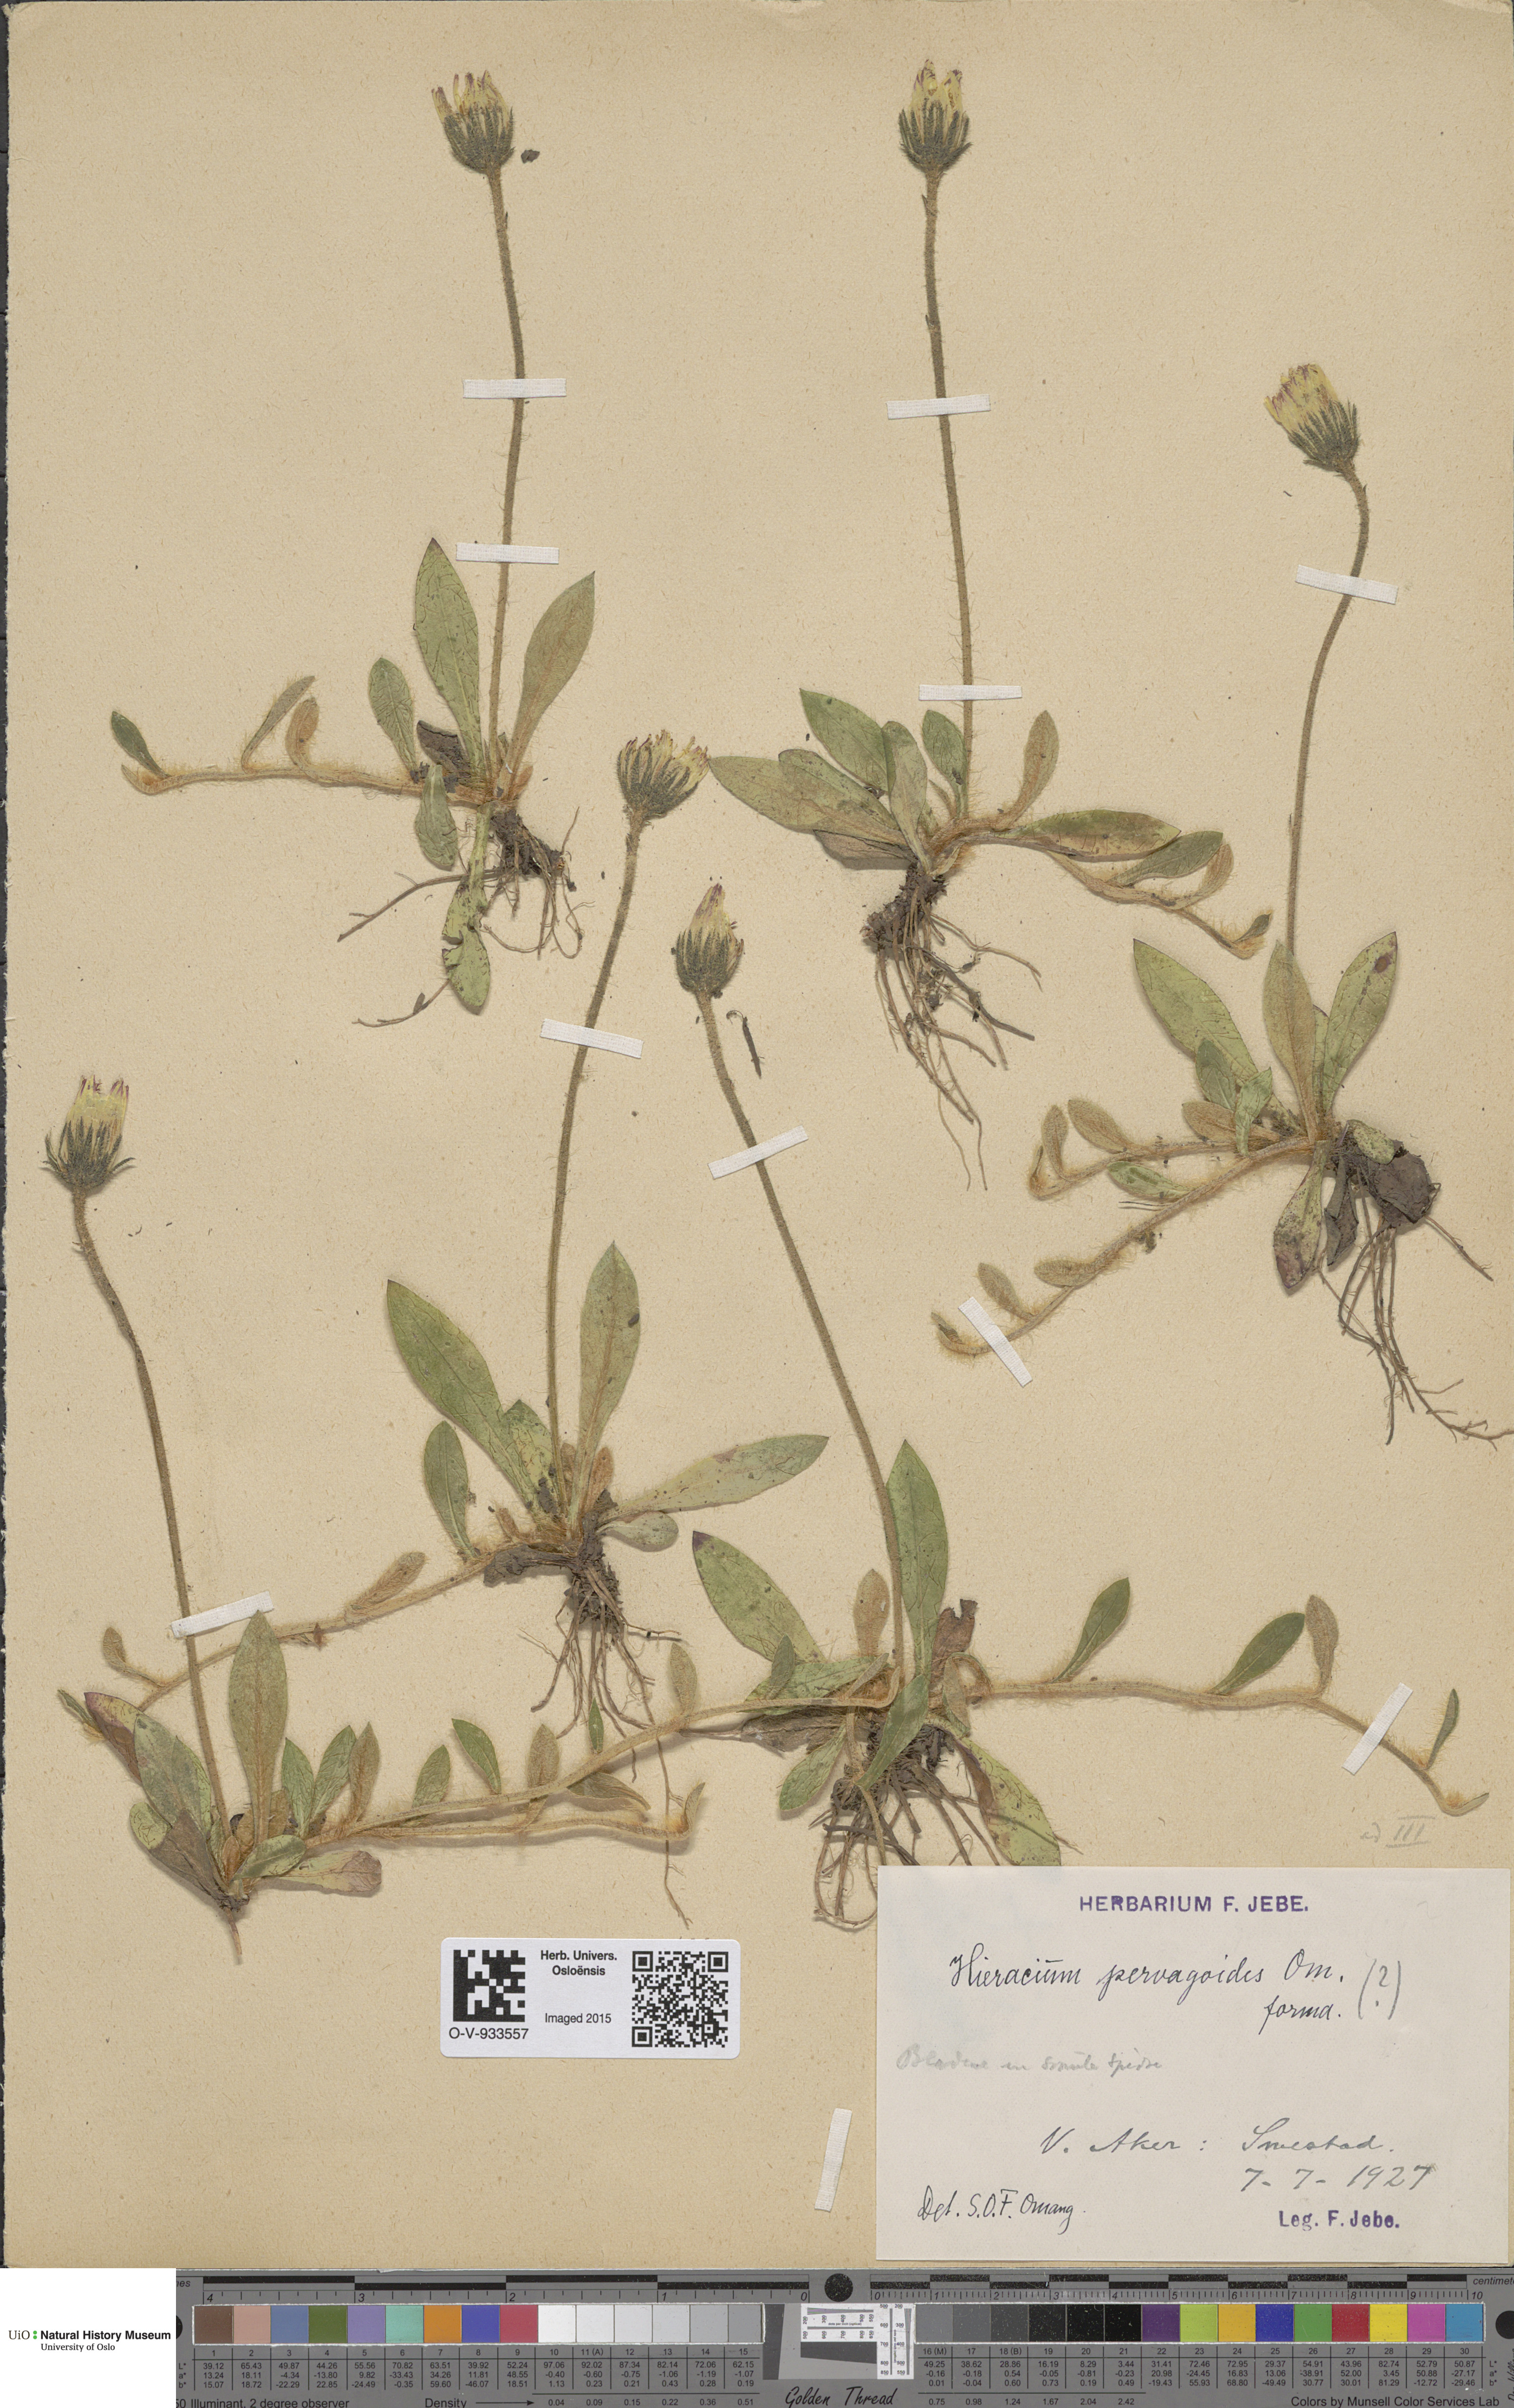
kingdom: Plantae
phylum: Tracheophyta
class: Magnoliopsida
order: Asterales
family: Asteraceae
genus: Pilosella
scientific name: Pilosella officinarum
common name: Mouse-ear hawkweed
